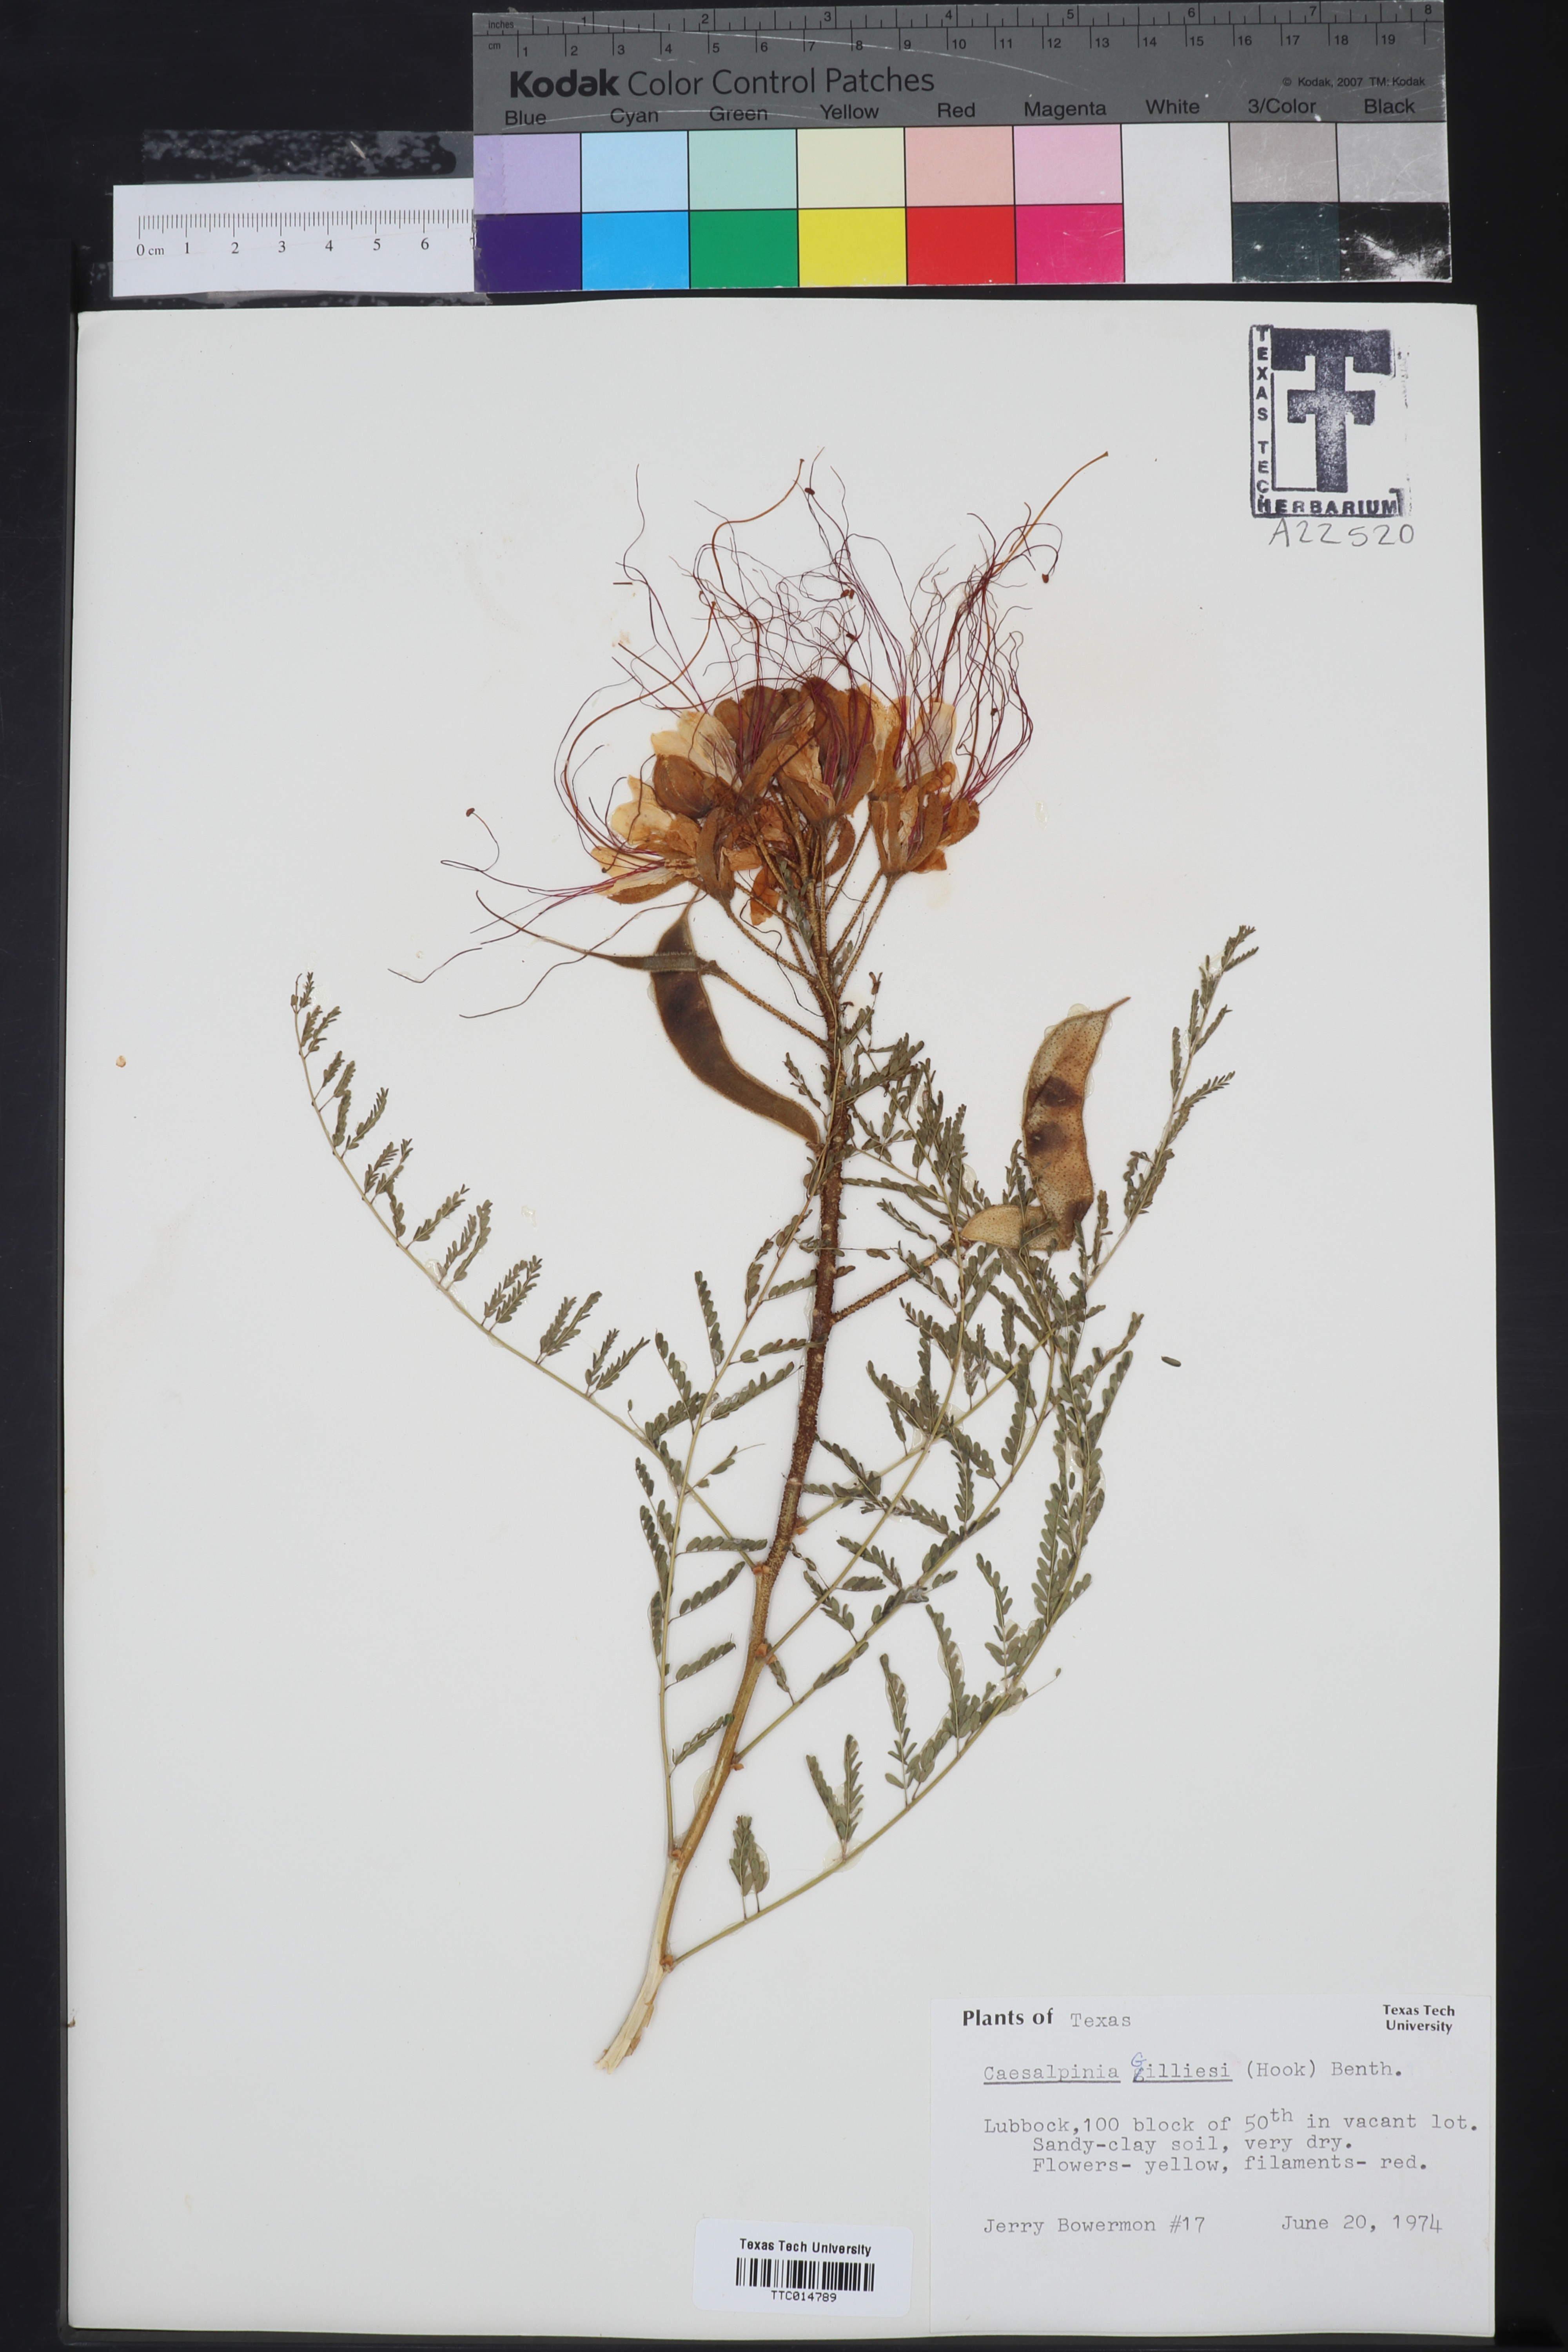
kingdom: Plantae
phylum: Tracheophyta
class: Magnoliopsida
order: Fabales
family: Fabaceae
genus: Erythrostemon
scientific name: Erythrostemon gilliesii
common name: Bird-of-paradise shrub
